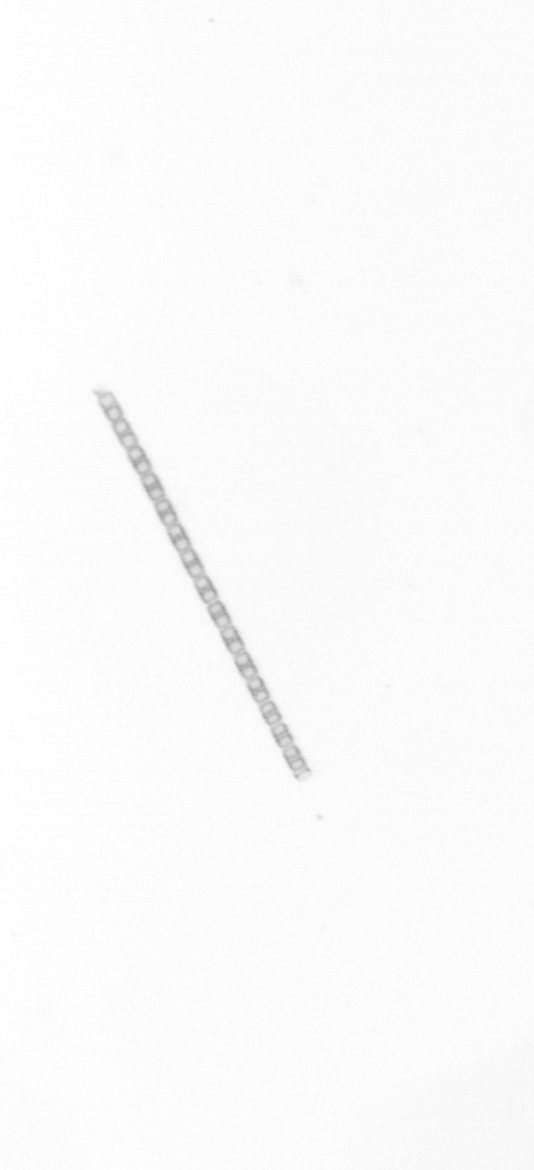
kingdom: Chromista
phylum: Ochrophyta
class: Bacillariophyceae
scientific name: Bacillariophyceae
